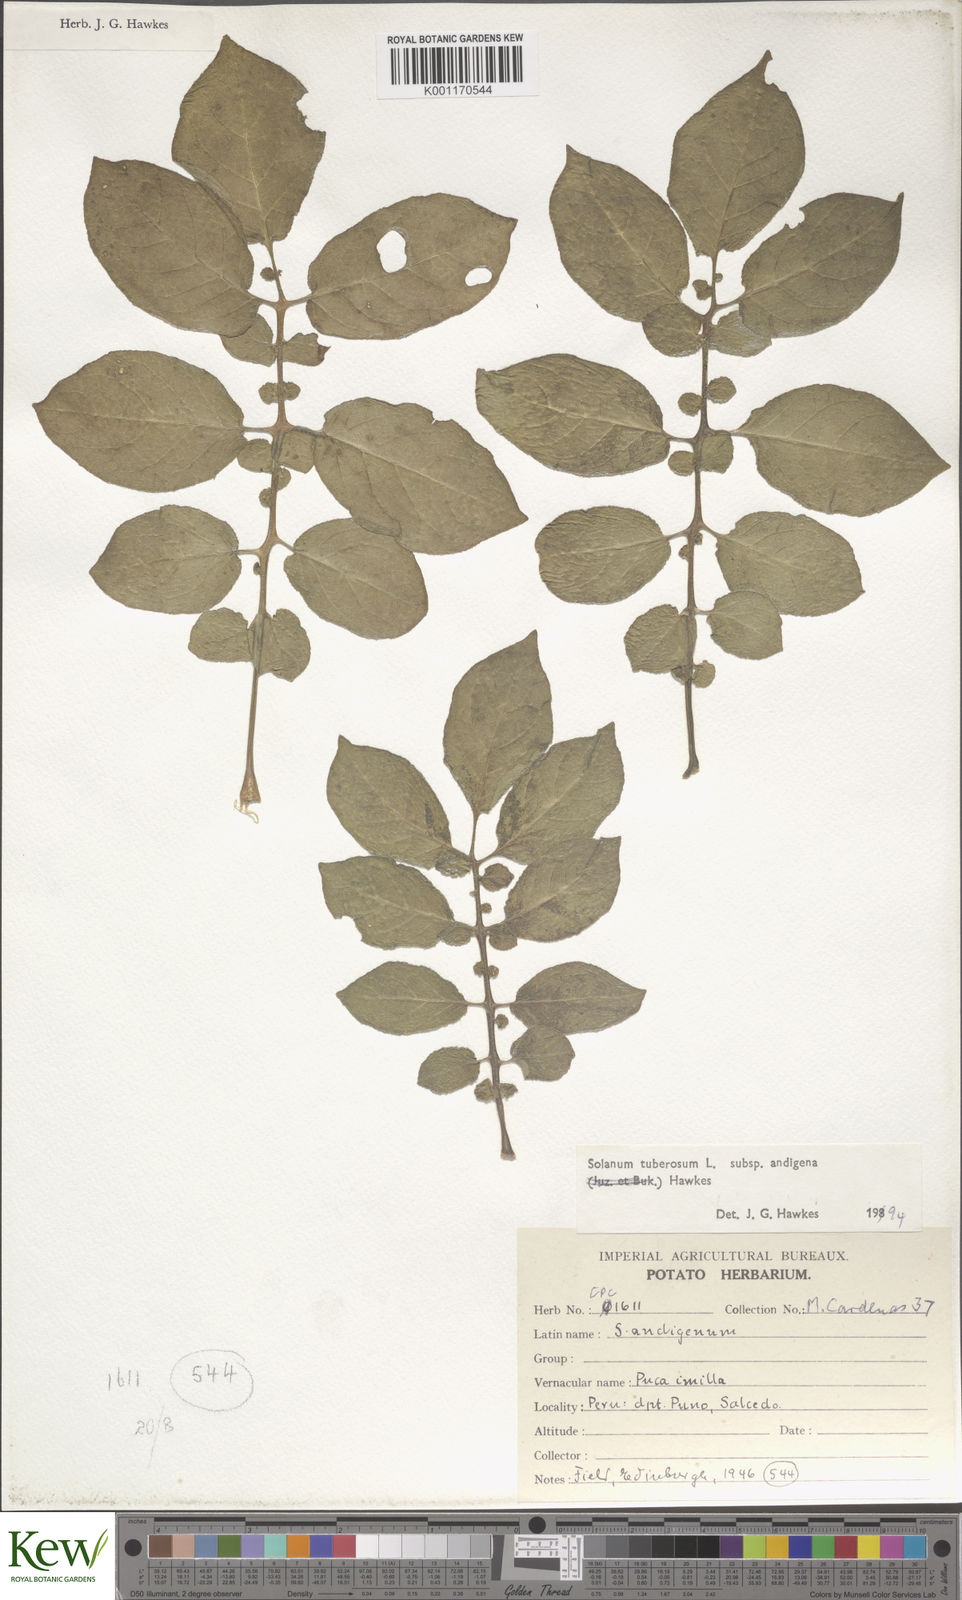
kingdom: Plantae
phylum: Tracheophyta
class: Magnoliopsida
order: Solanales
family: Solanaceae
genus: Solanum
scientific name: Solanum tuberosum
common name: Potato
